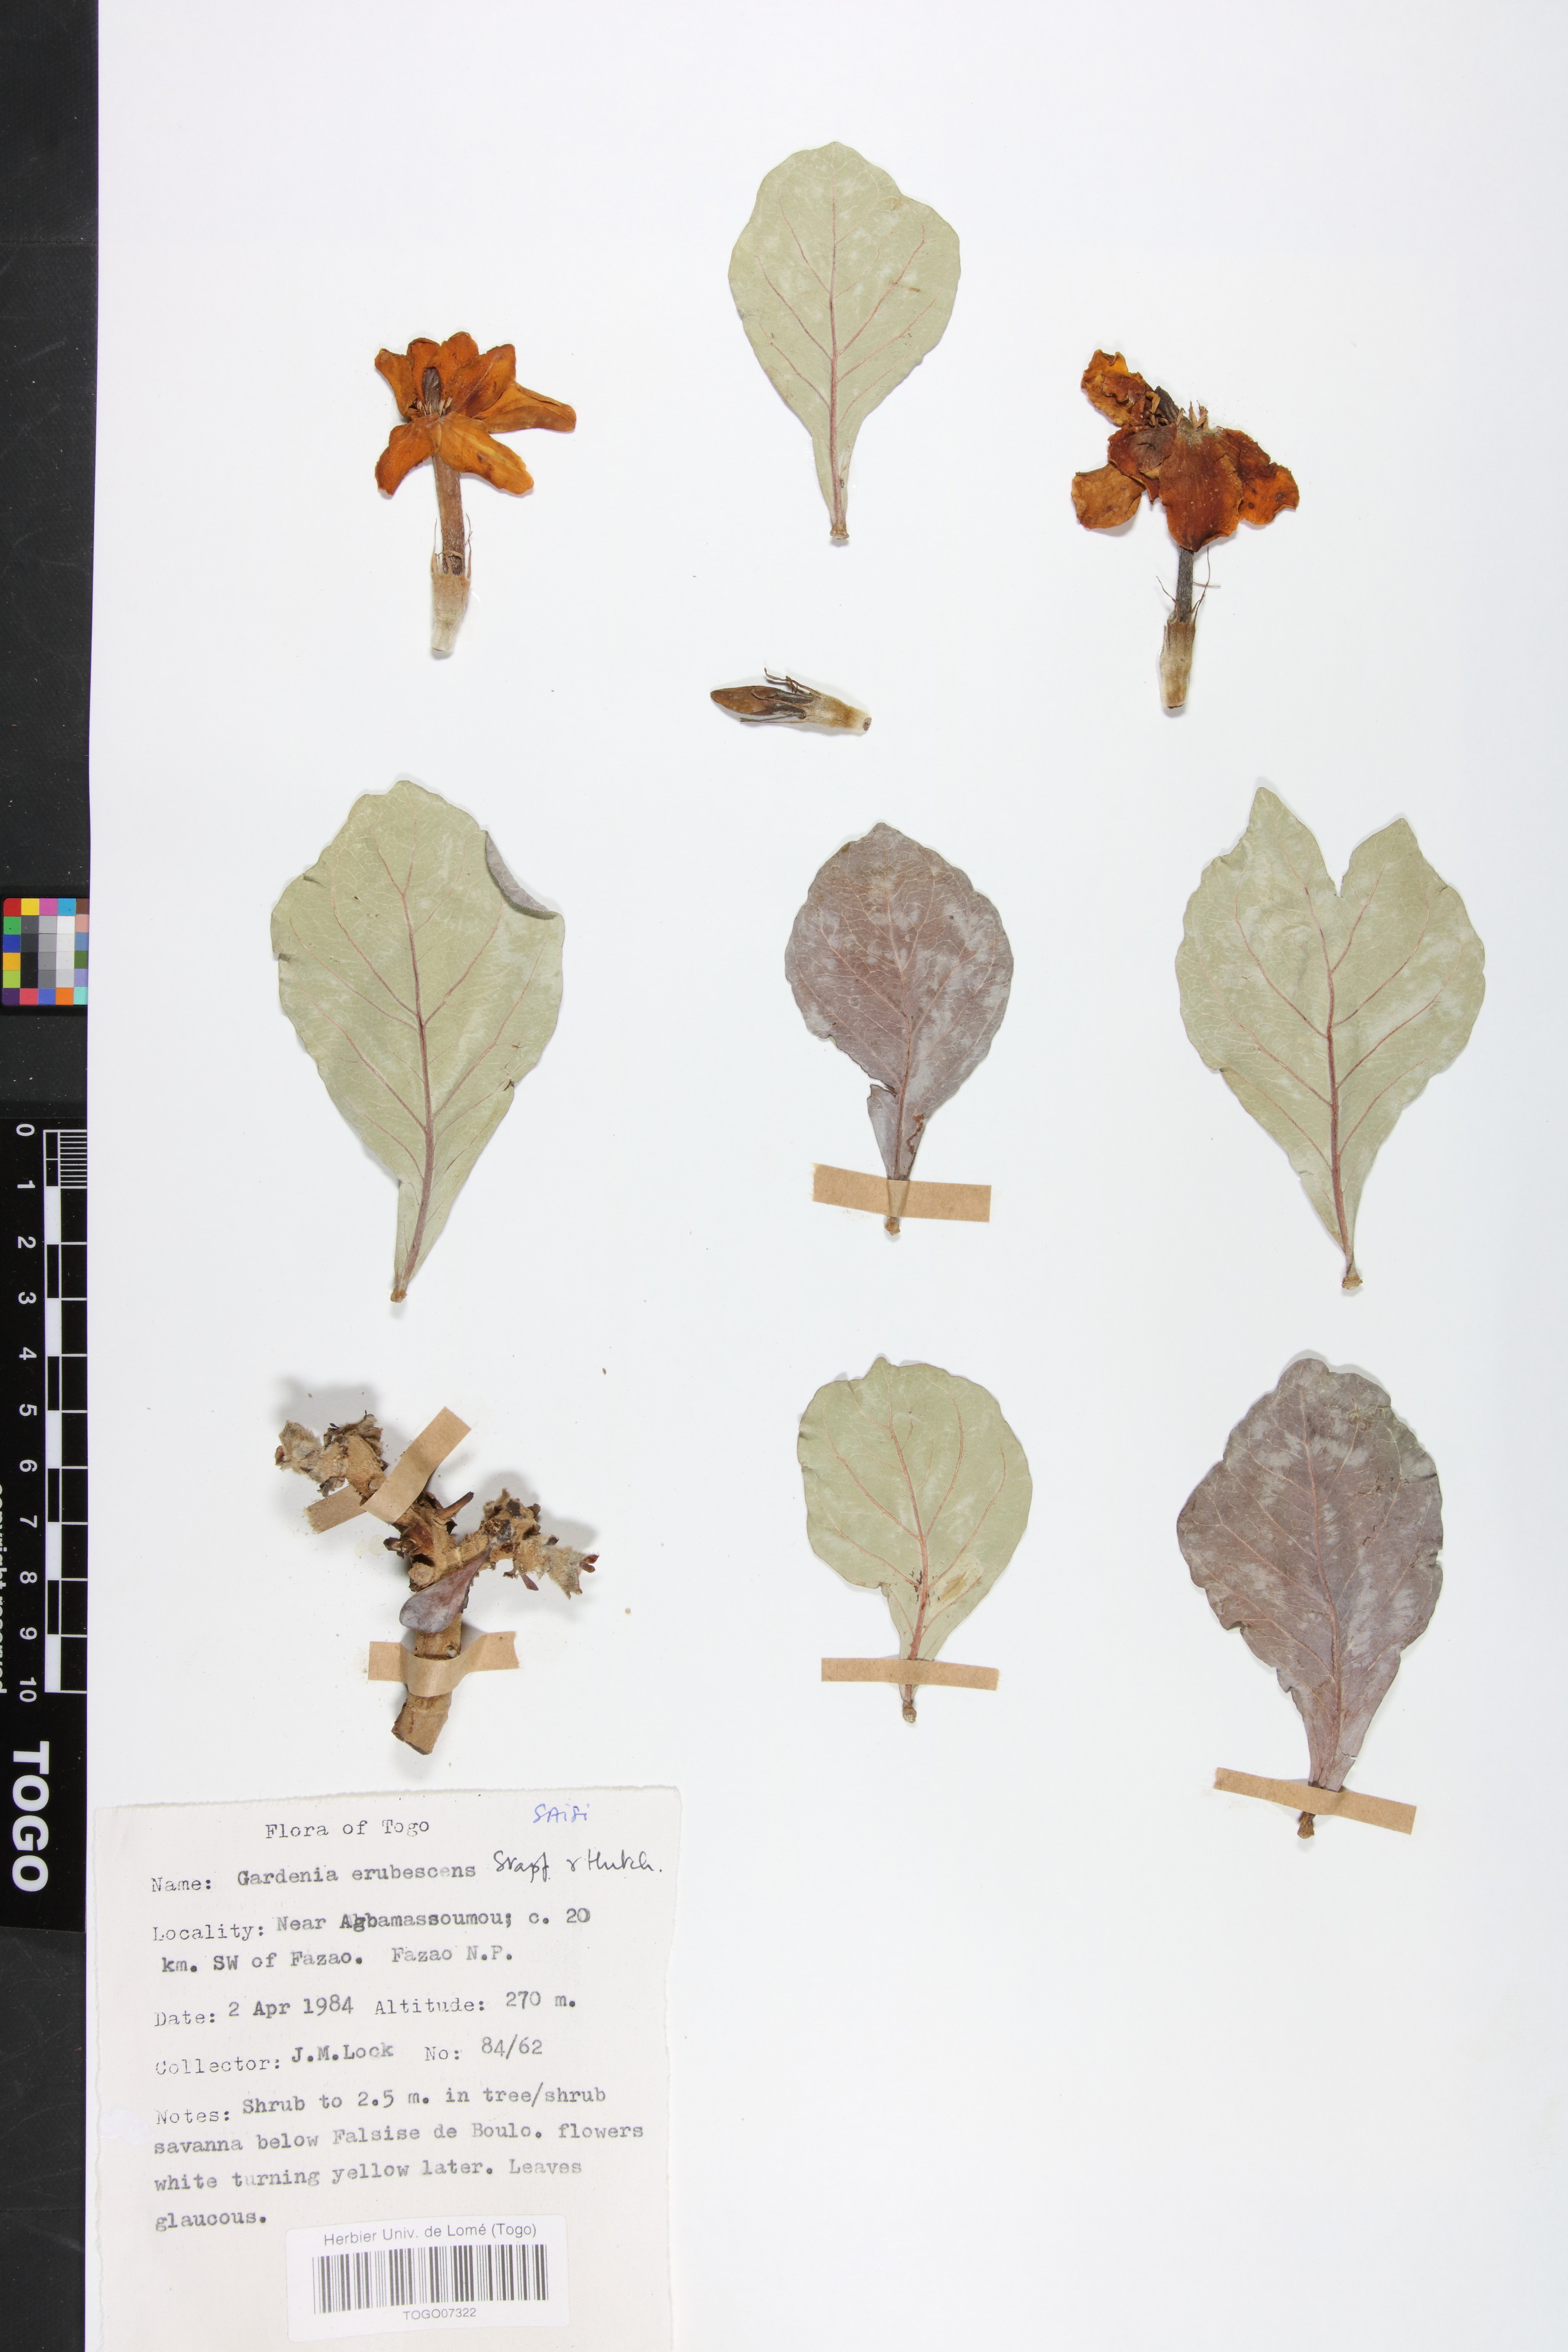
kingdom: Plantae
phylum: Tracheophyta
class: Magnoliopsida
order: Gentianales
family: Rubiaceae
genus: Gardenia
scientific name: Gardenia erubescens
